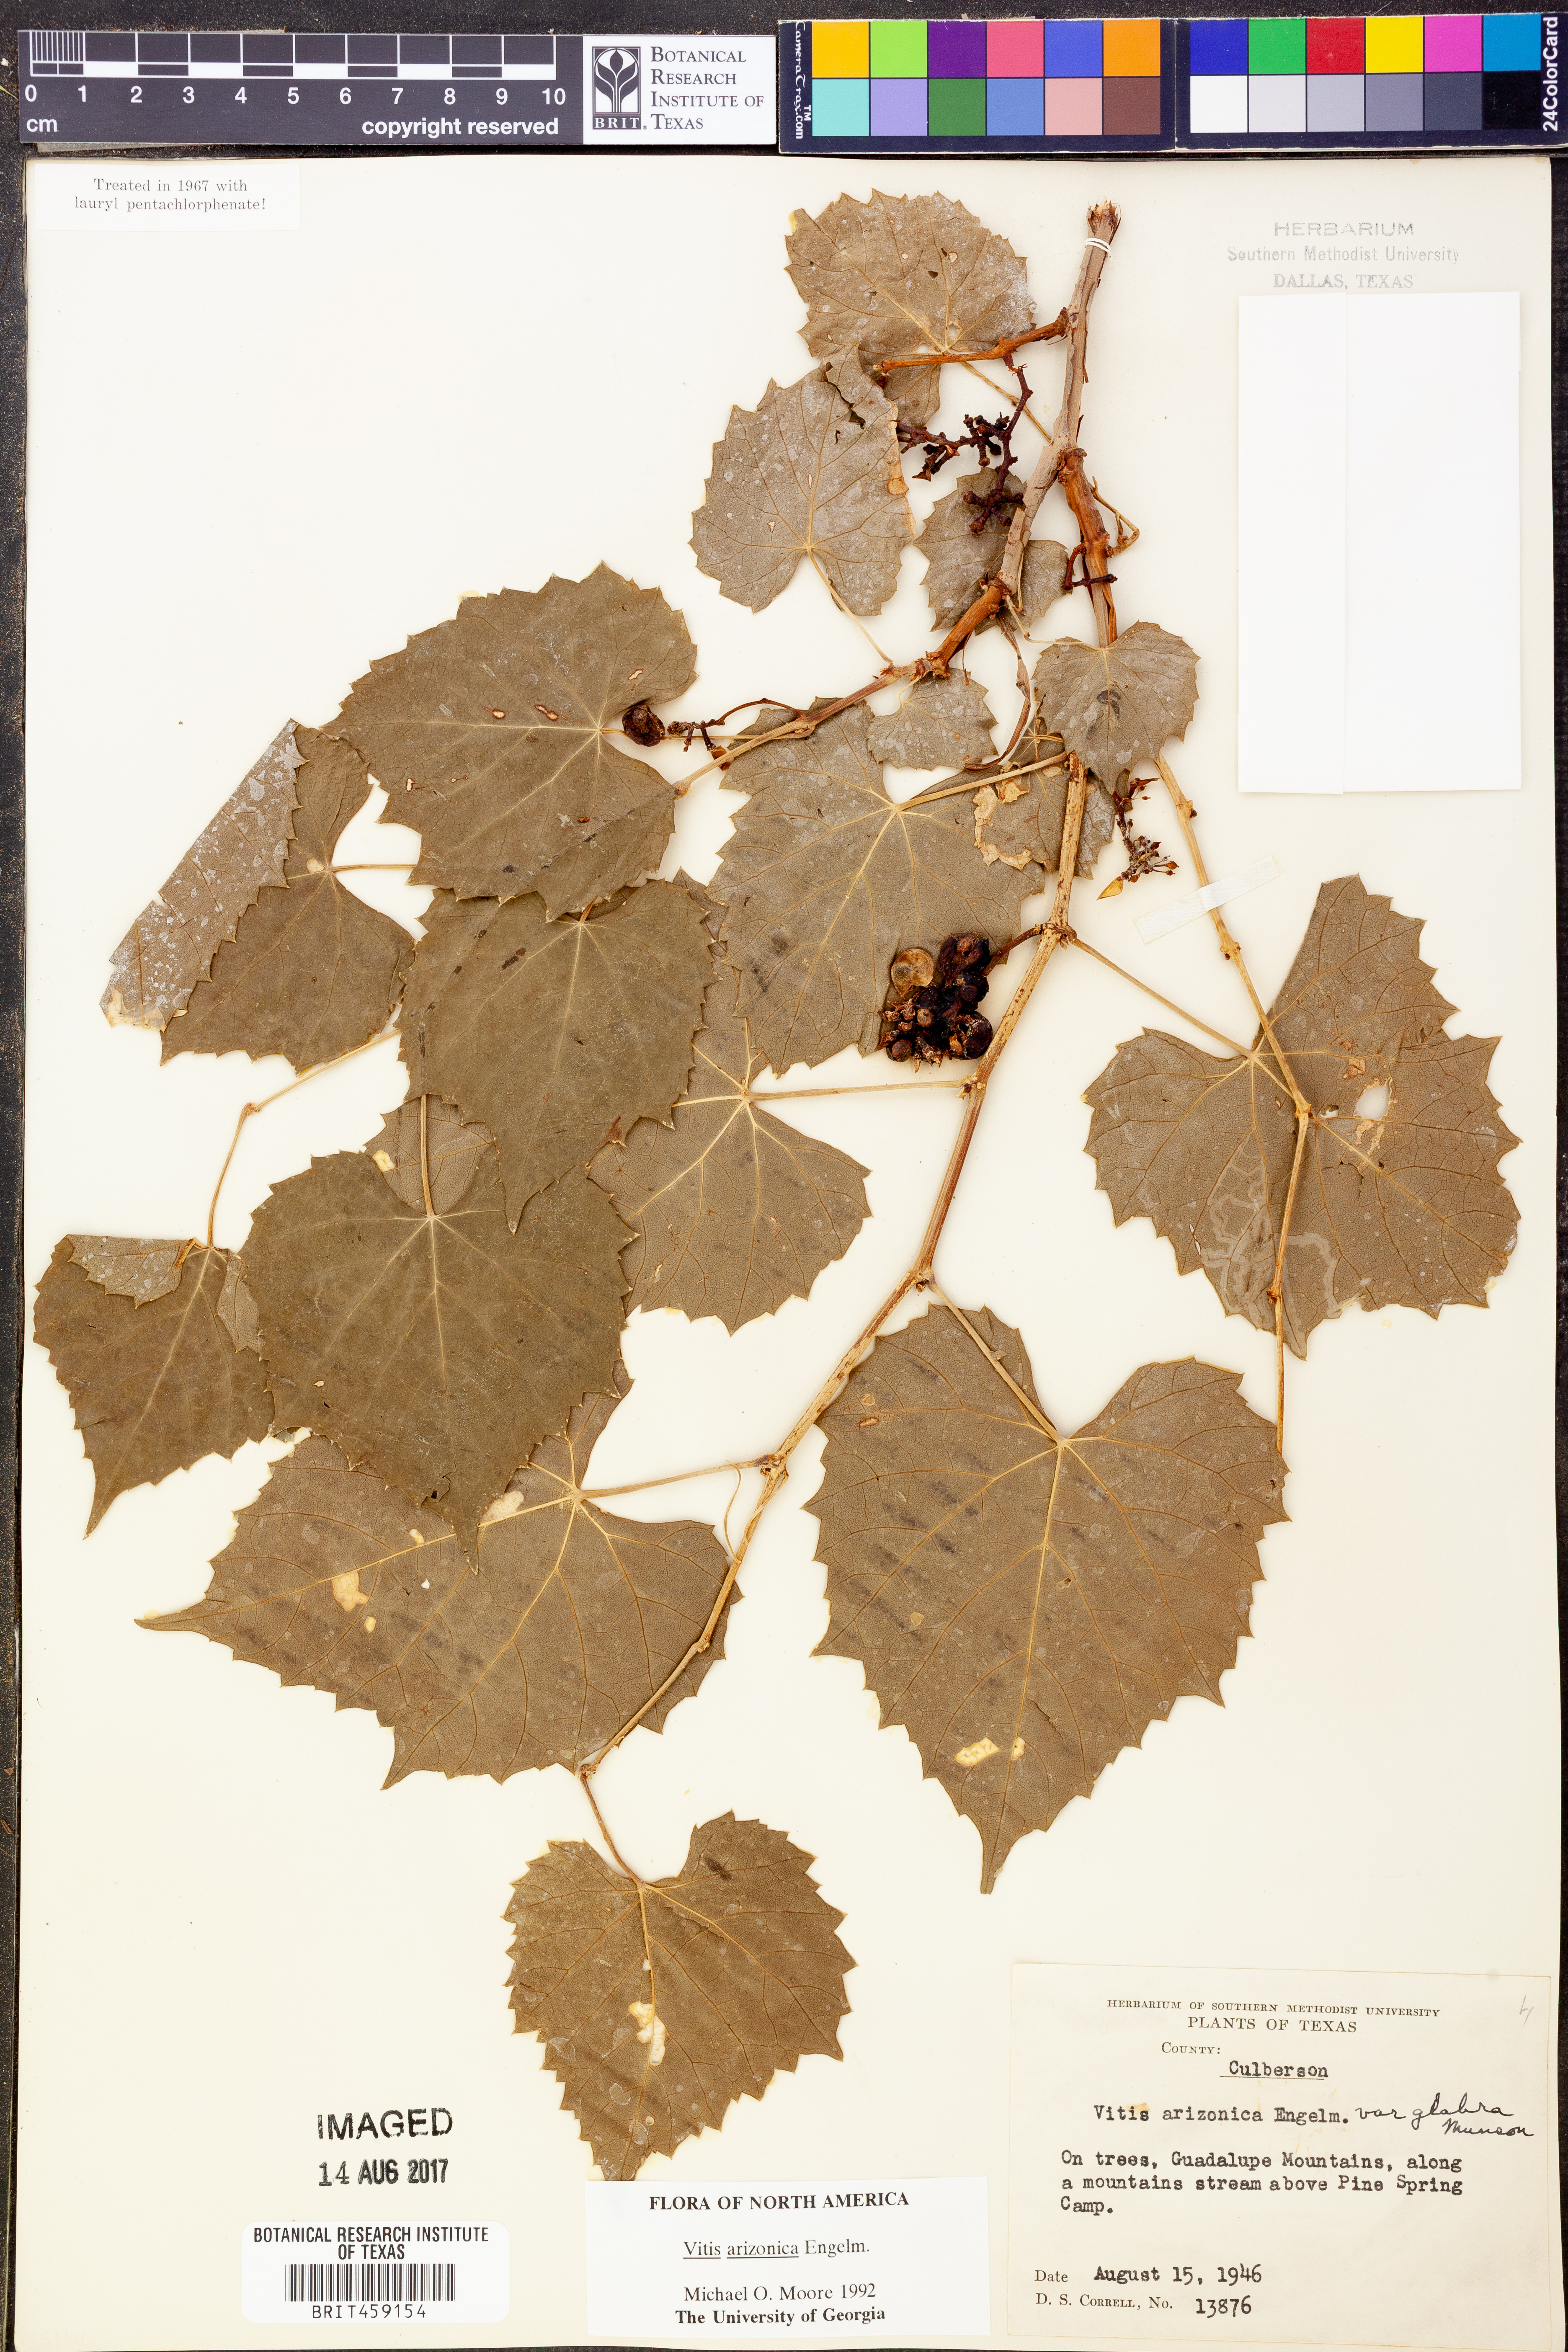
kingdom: Plantae
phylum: Tracheophyta
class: Magnoliopsida
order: Vitales
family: Vitaceae
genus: Vitis
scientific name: Vitis arizonica
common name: Canyon grape
